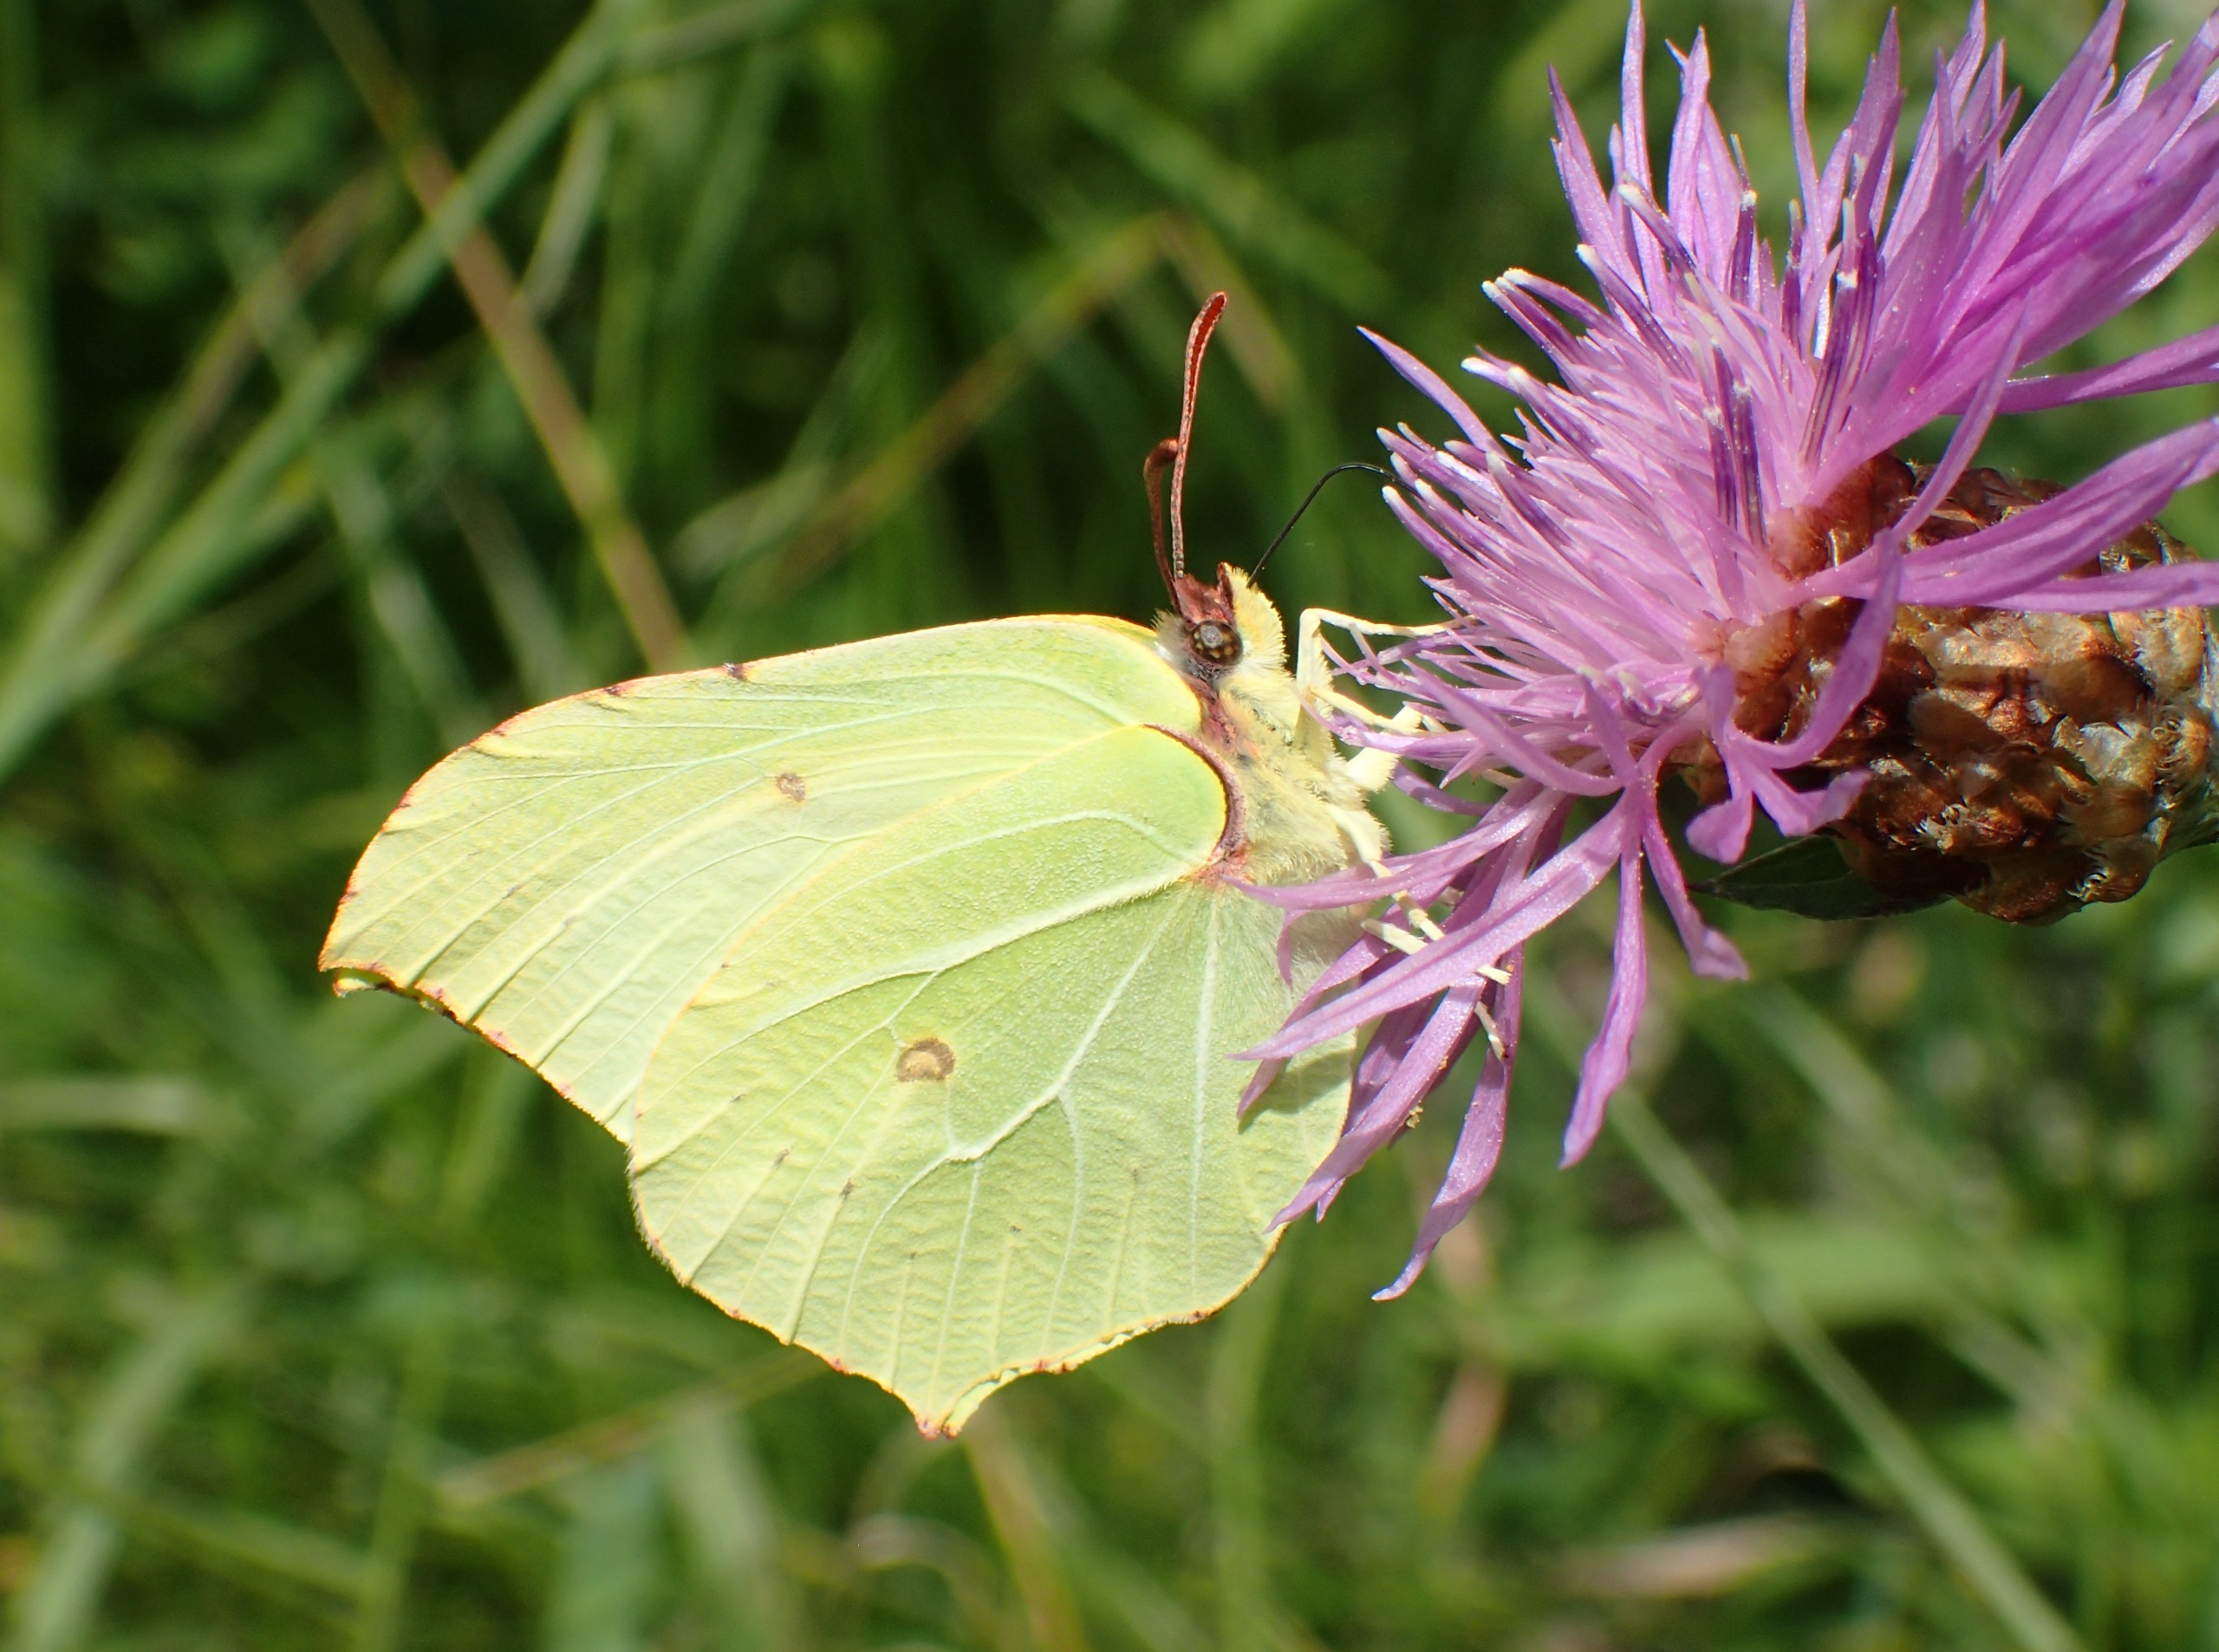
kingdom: Animalia
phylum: Arthropoda
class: Insecta
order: Lepidoptera
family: Pieridae
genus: Gonepteryx
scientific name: Gonepteryx rhamni
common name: Citronsommerfugl
